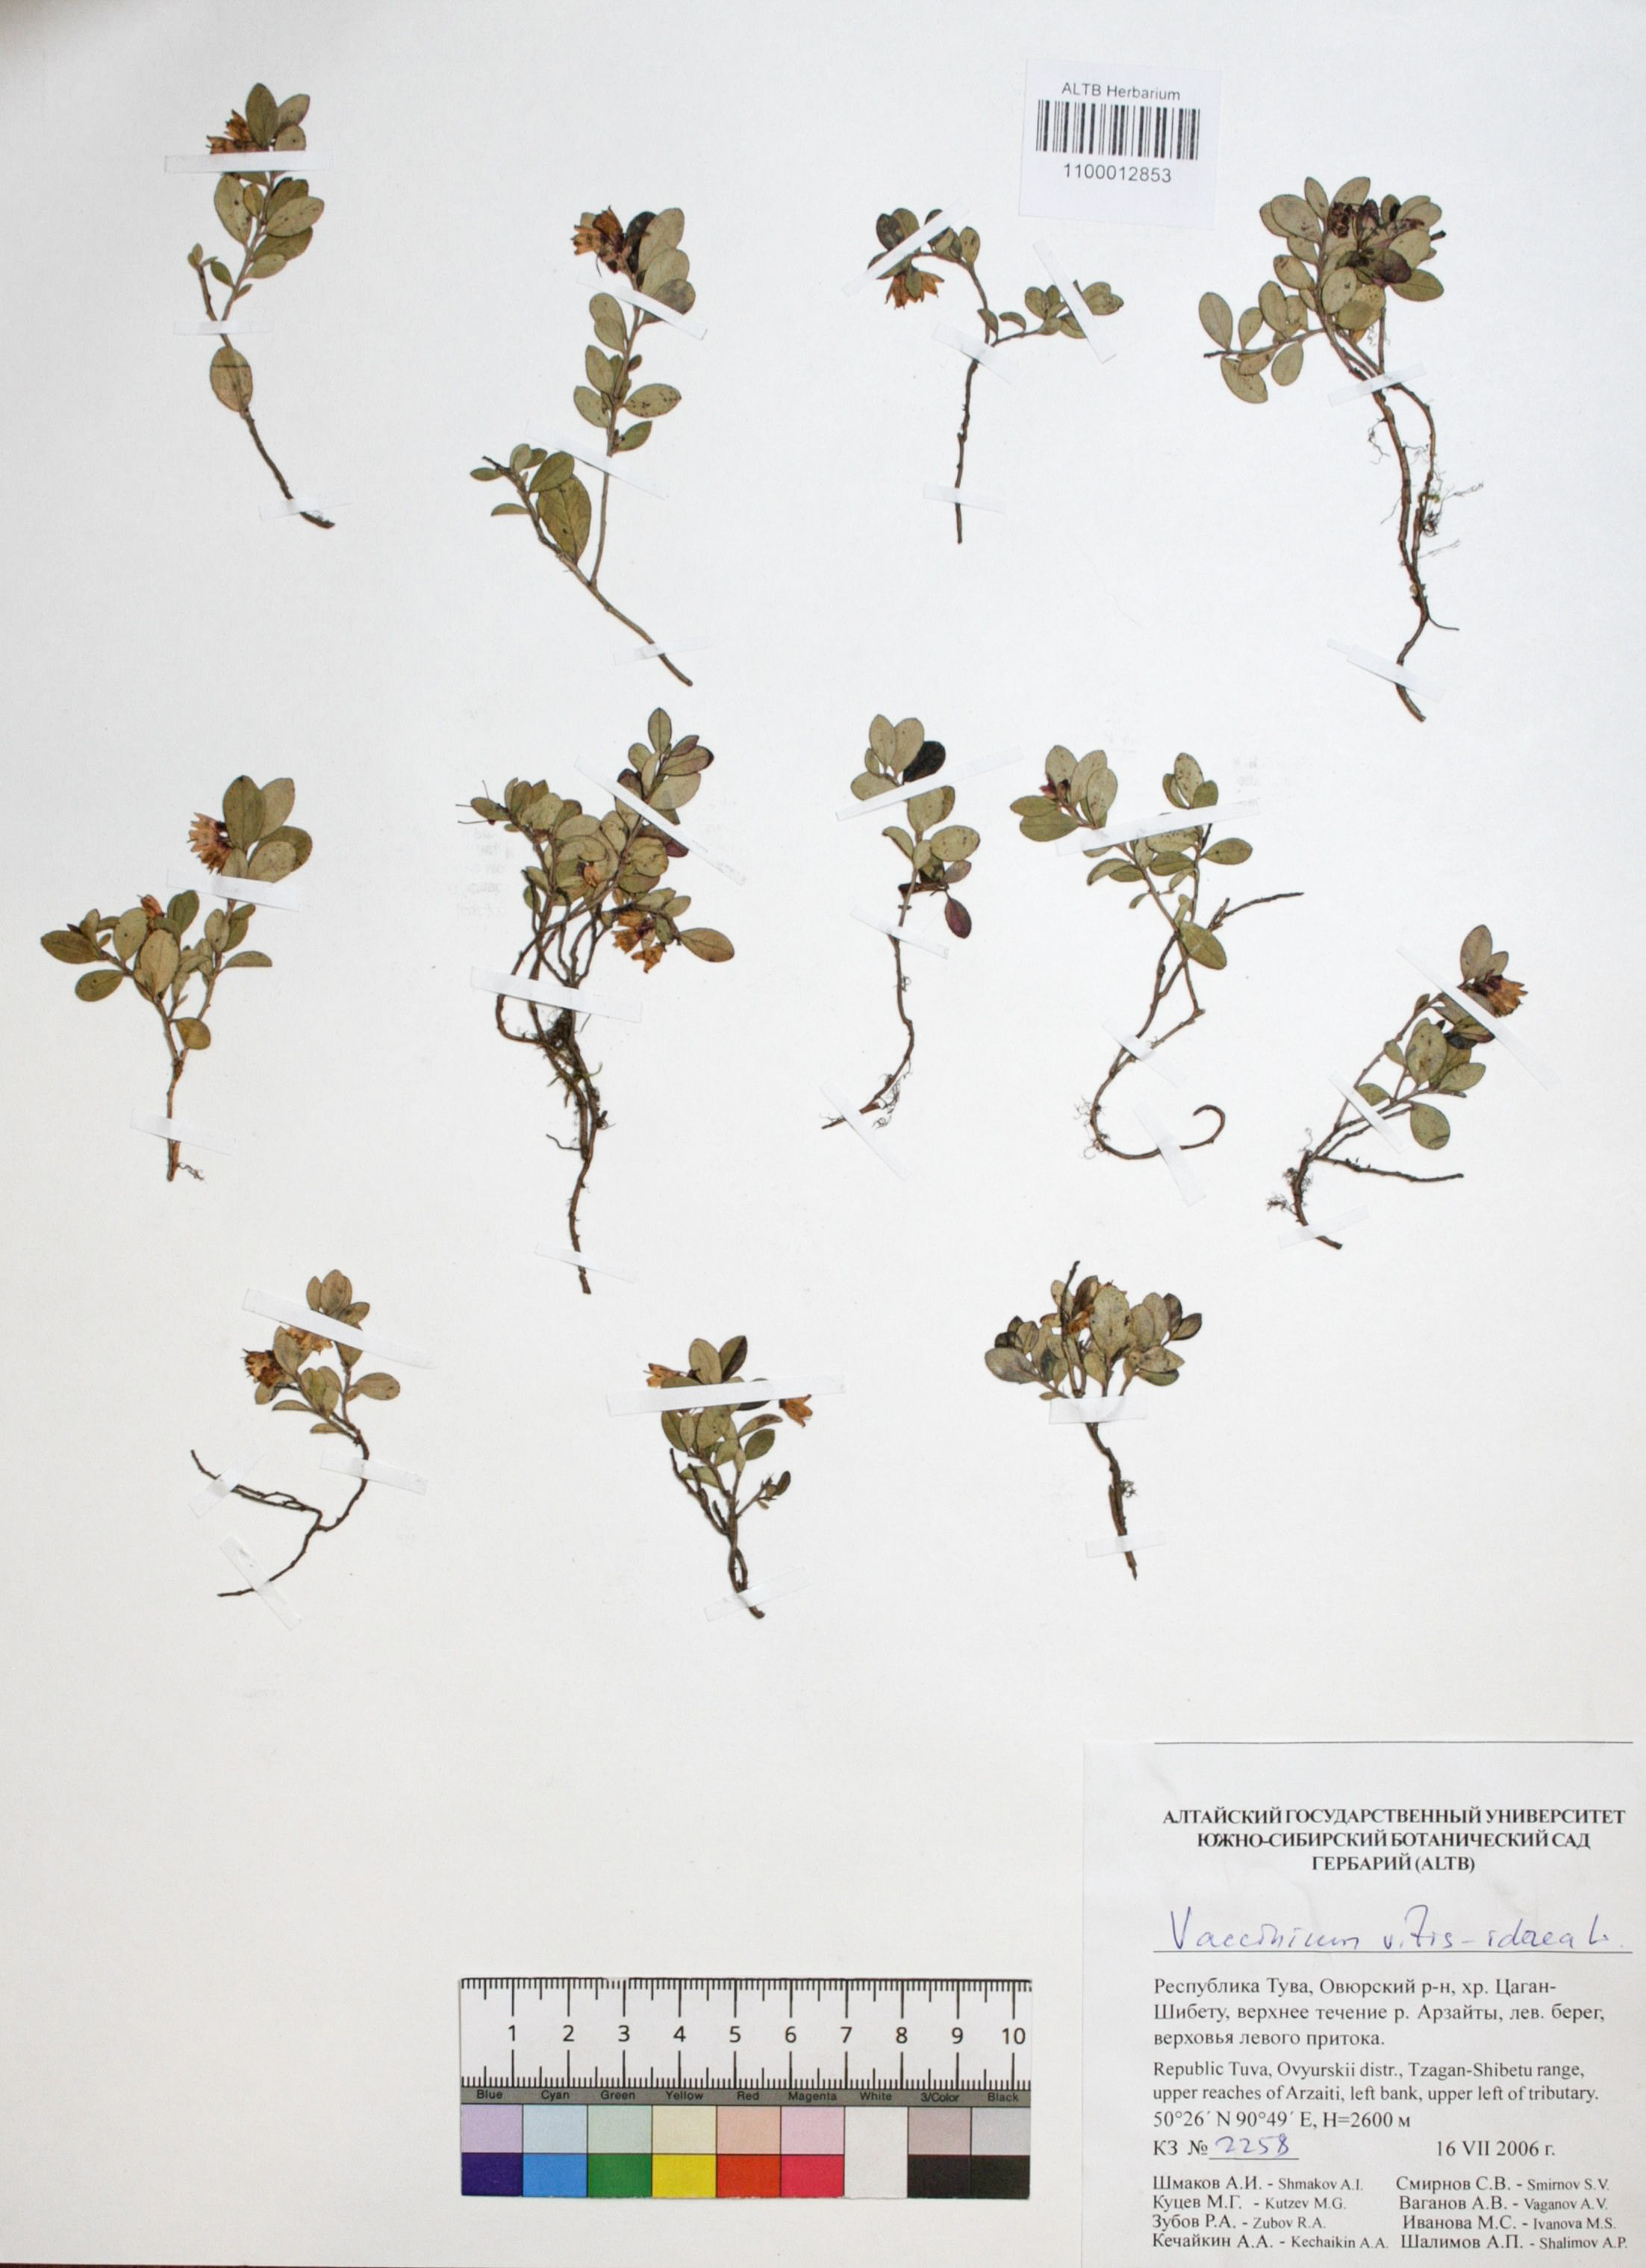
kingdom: Plantae
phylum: Tracheophyta
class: Magnoliopsida
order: Ericales
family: Ericaceae
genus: Vaccinium
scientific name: Vaccinium vitis-idaea
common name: Cowberry
